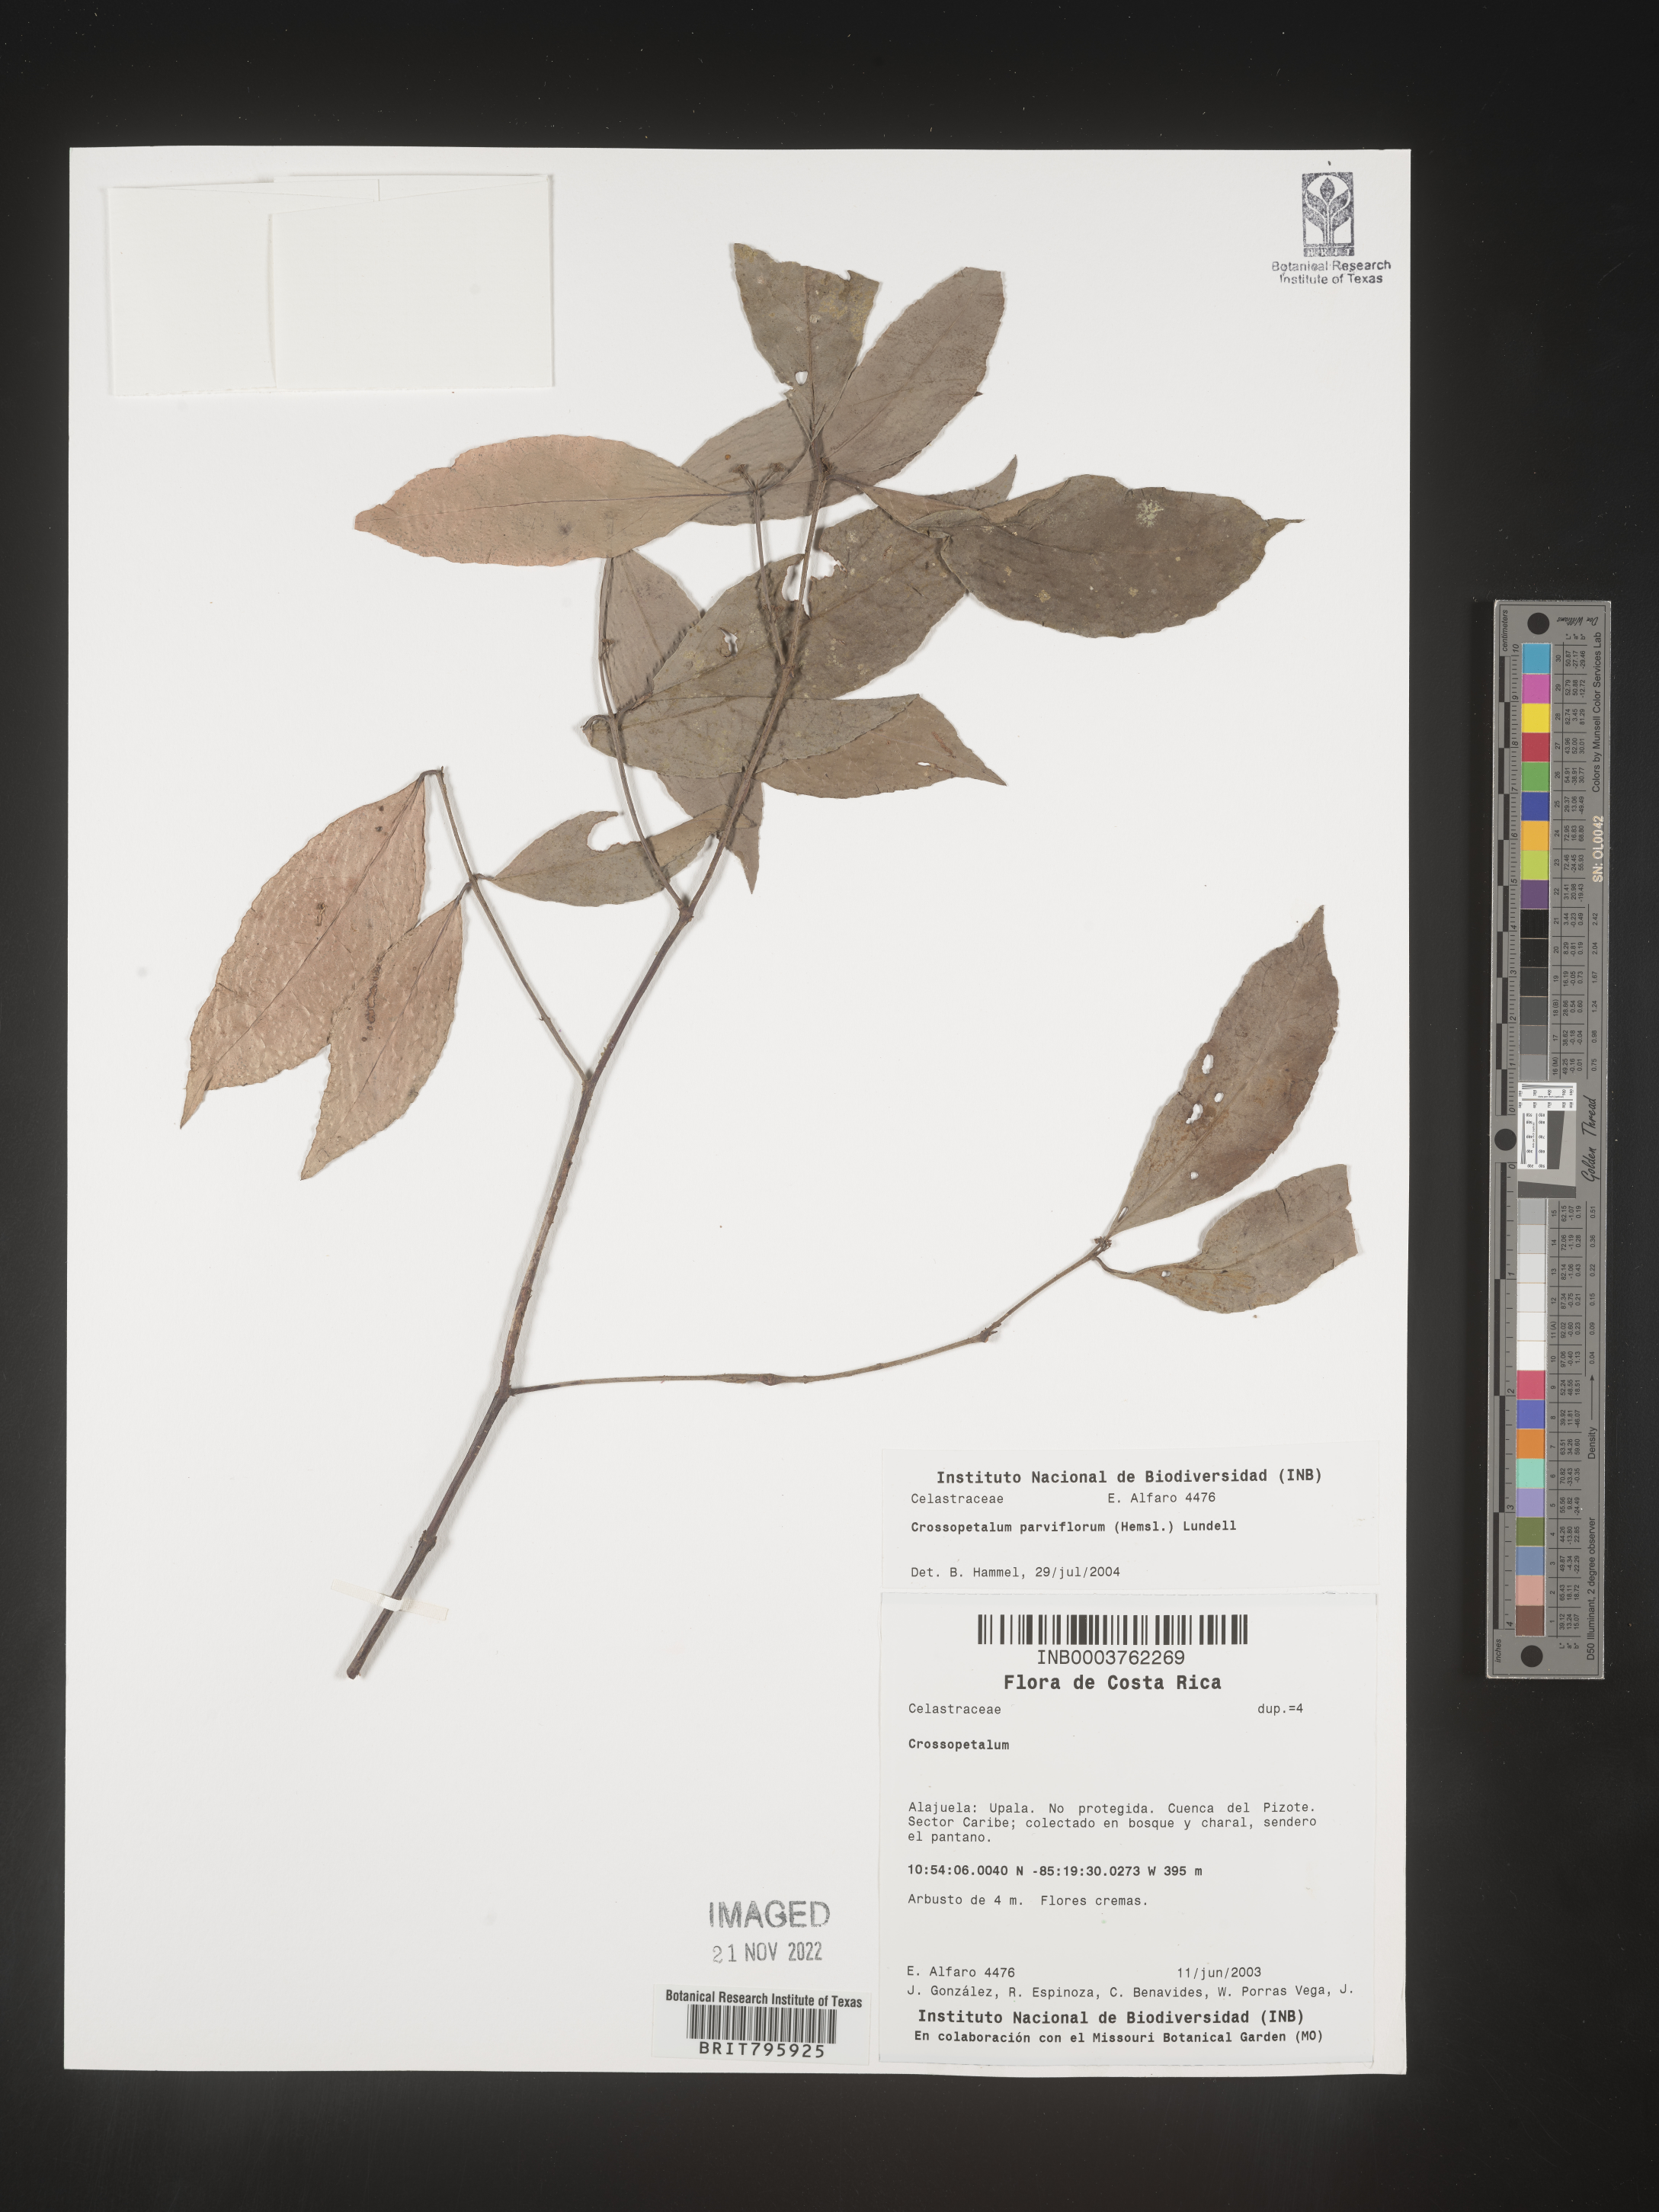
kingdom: Plantae
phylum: Tracheophyta
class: Magnoliopsida
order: Celastrales
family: Celastraceae
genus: Crossopetalum
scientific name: Crossopetalum parviflorum
